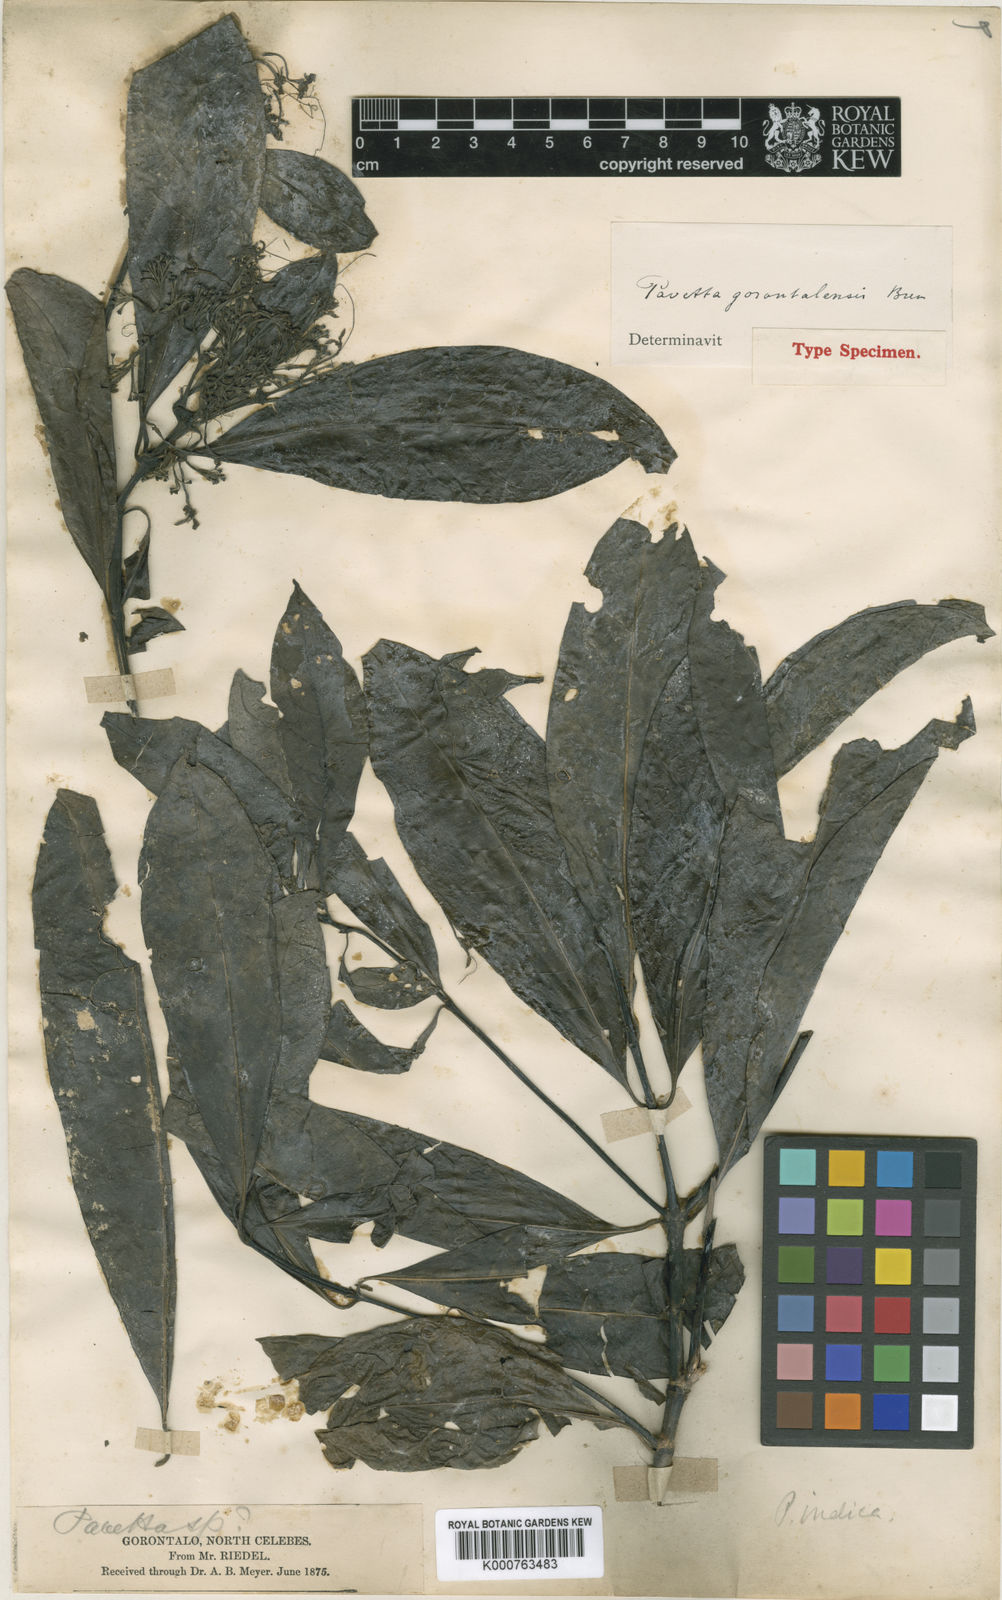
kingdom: Plantae
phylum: Tracheophyta
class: Magnoliopsida
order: Gentianales
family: Rubiaceae
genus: Pavetta
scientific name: Pavetta gorontalensis
